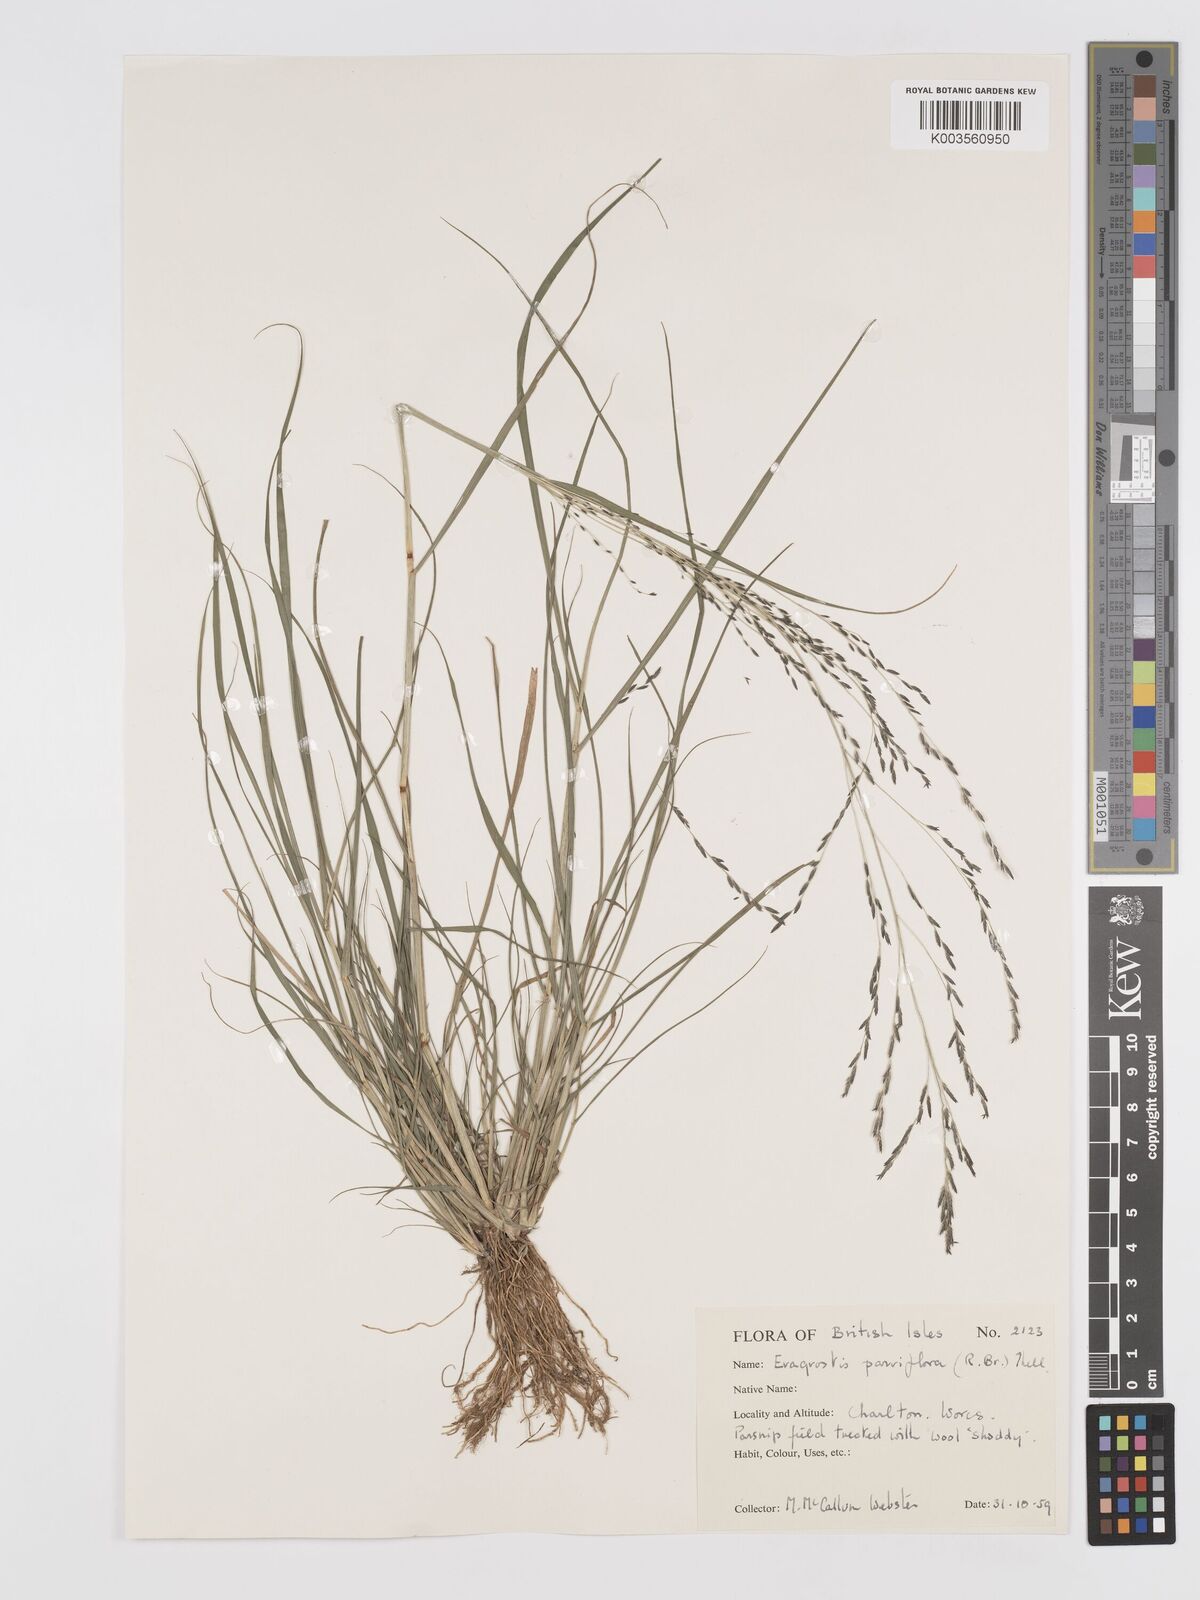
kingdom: Plantae
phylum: Tracheophyta
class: Liliopsida
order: Poales
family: Poaceae
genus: Eragrostis
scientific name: Eragrostis parviflora
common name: Weeping love-grass
